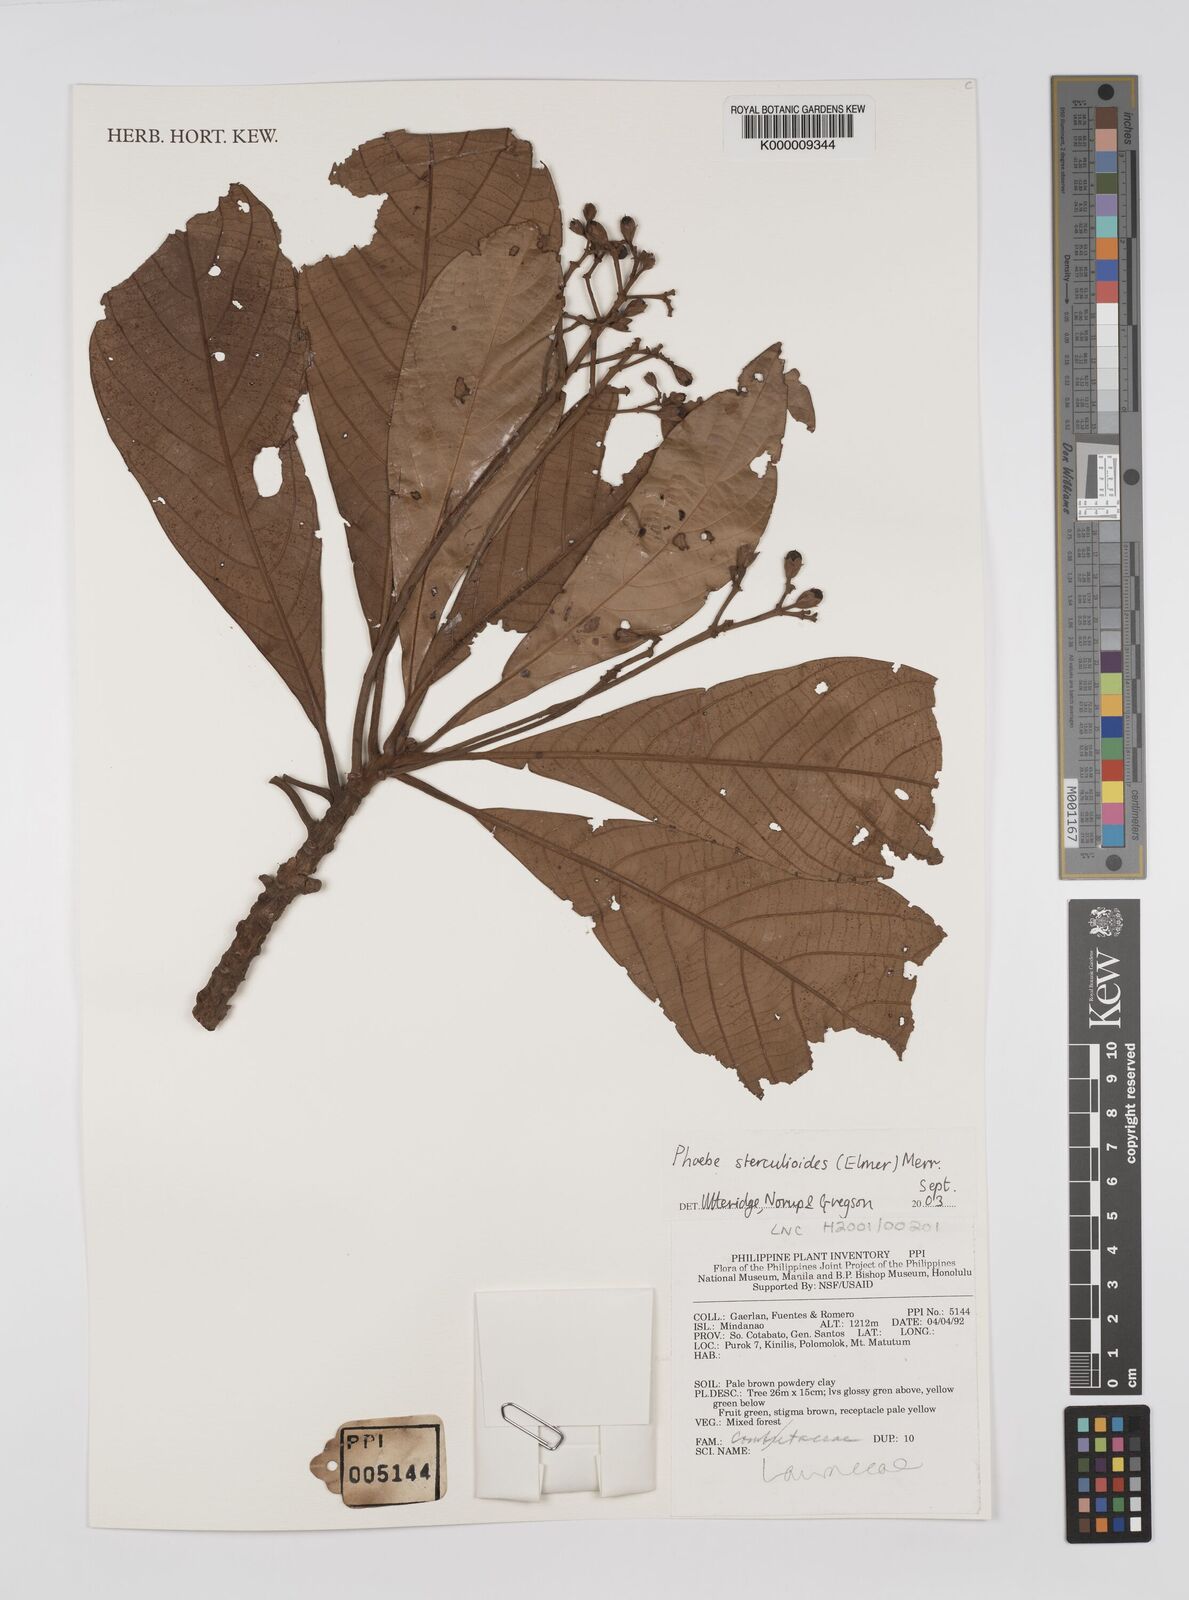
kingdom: Plantae
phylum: Tracheophyta
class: Magnoliopsida
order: Laurales
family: Lauraceae
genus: Phoebe
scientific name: Phoebe sterculioides
